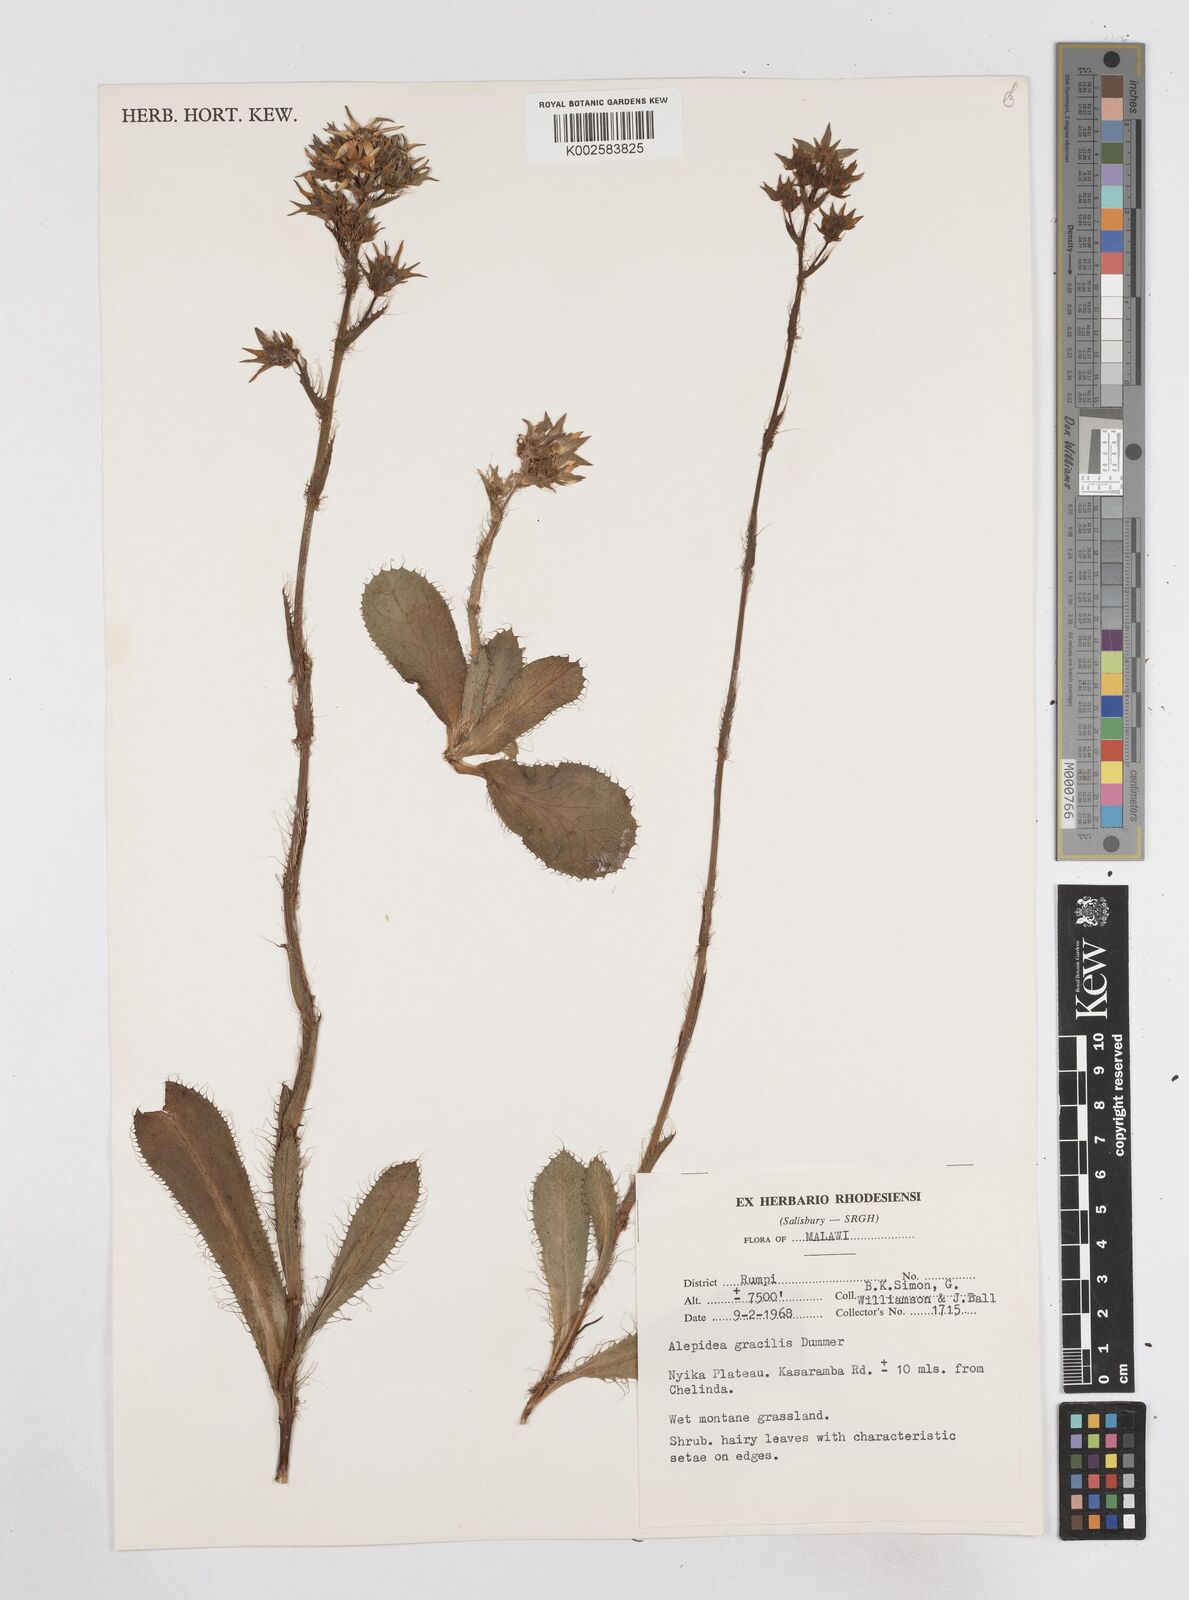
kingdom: Plantae
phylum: Tracheophyta
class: Magnoliopsida
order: Apiales
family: Apiaceae
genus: Alepidea
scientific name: Alepidea peduncularis
